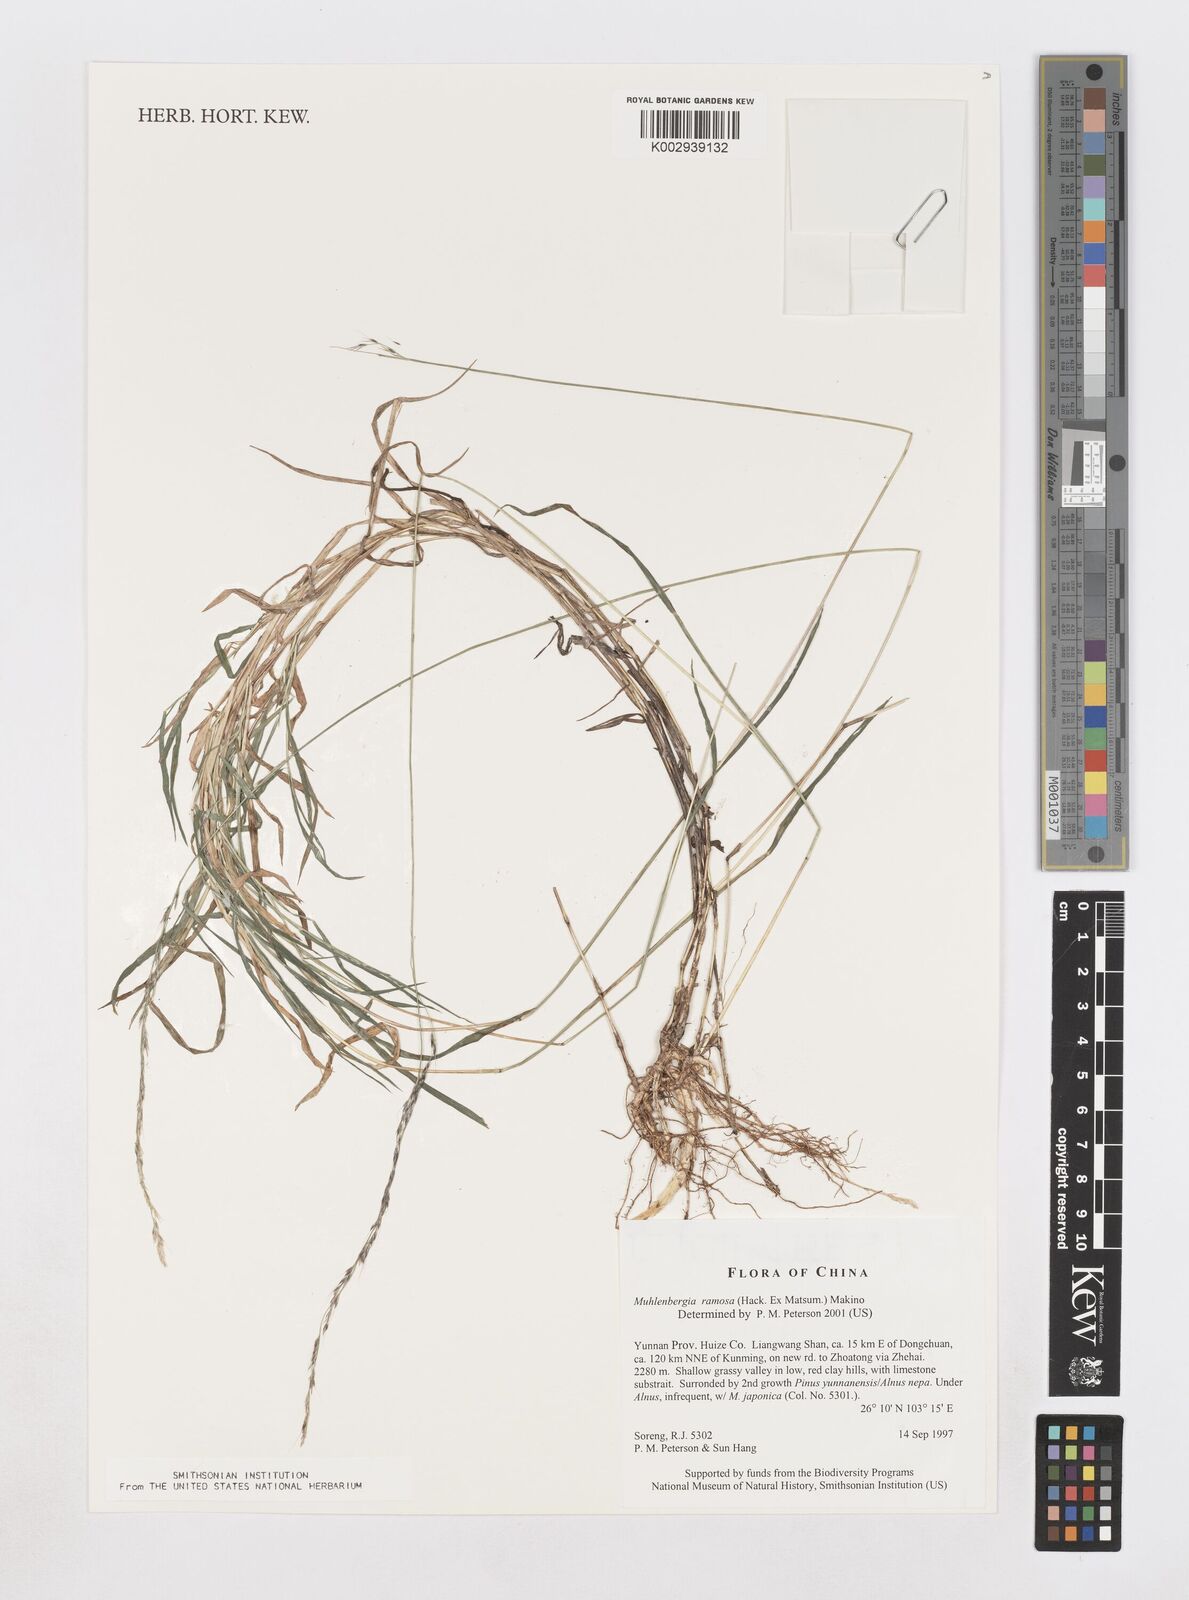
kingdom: Plantae
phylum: Tracheophyta
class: Liliopsida
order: Poales
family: Poaceae
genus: Muhlenbergia
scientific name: Muhlenbergia ramosa
